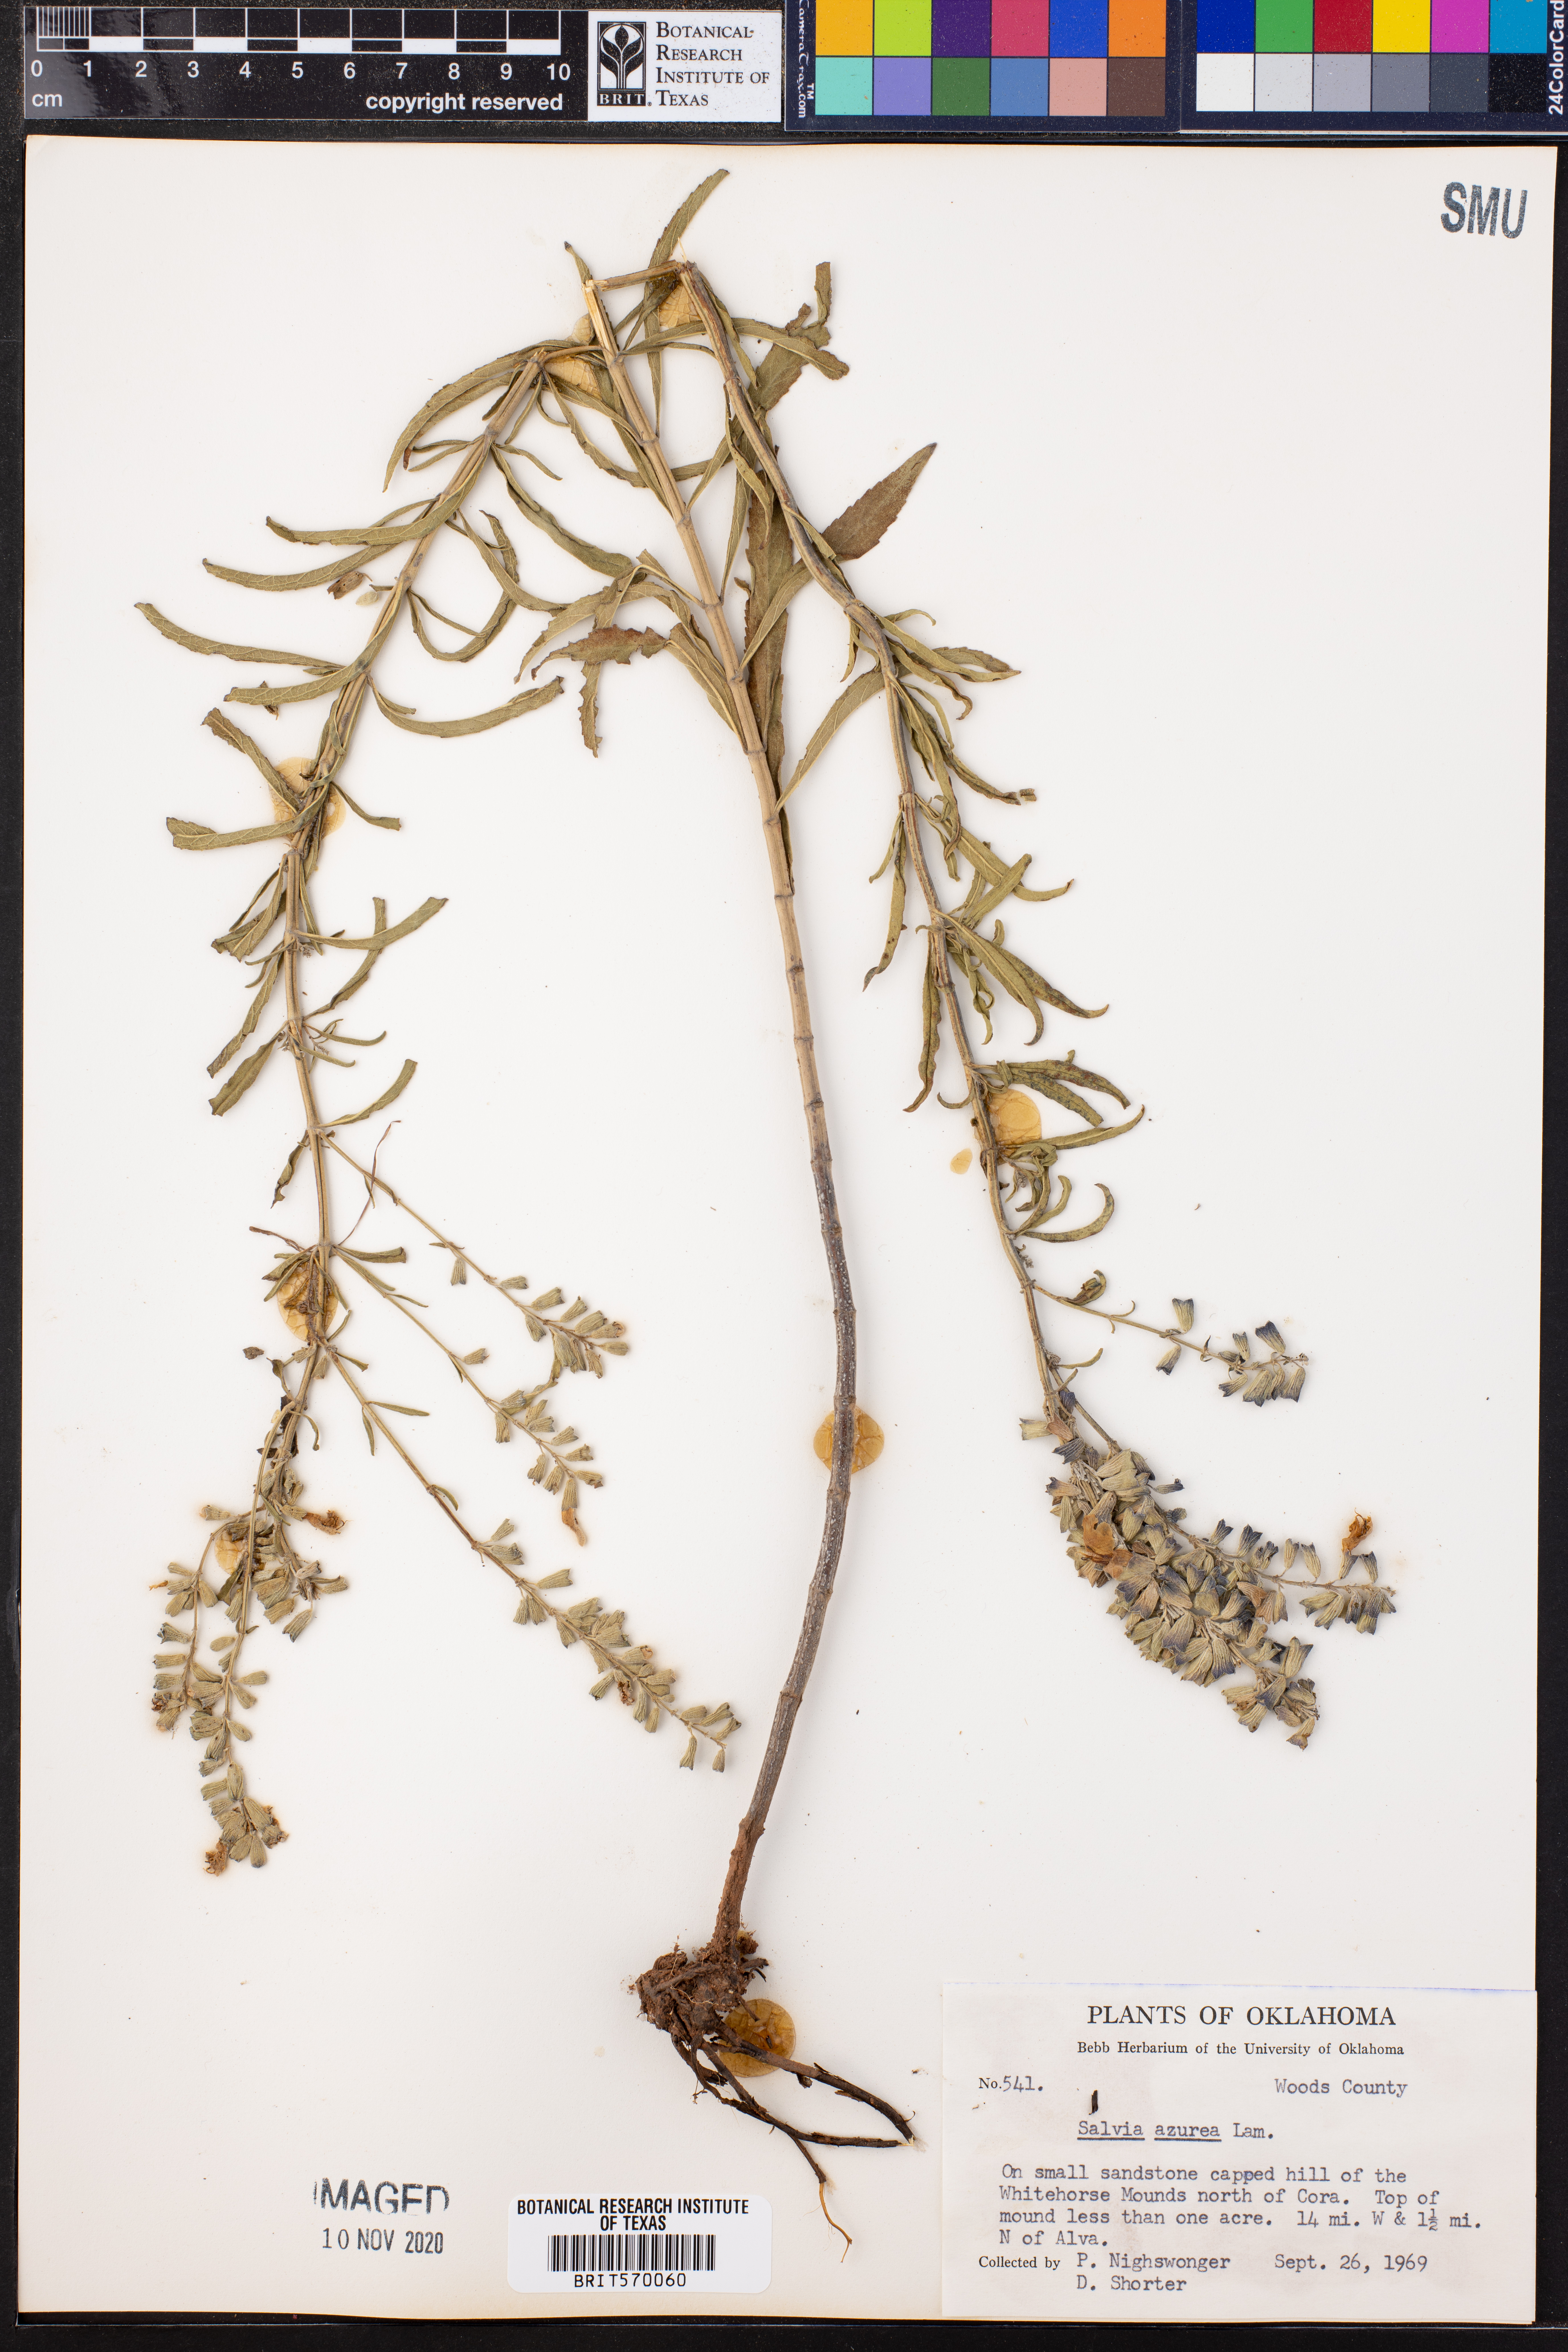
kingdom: Plantae
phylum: Tracheophyta
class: Magnoliopsida
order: Lamiales
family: Lamiaceae
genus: Salvia
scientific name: Salvia azurea
